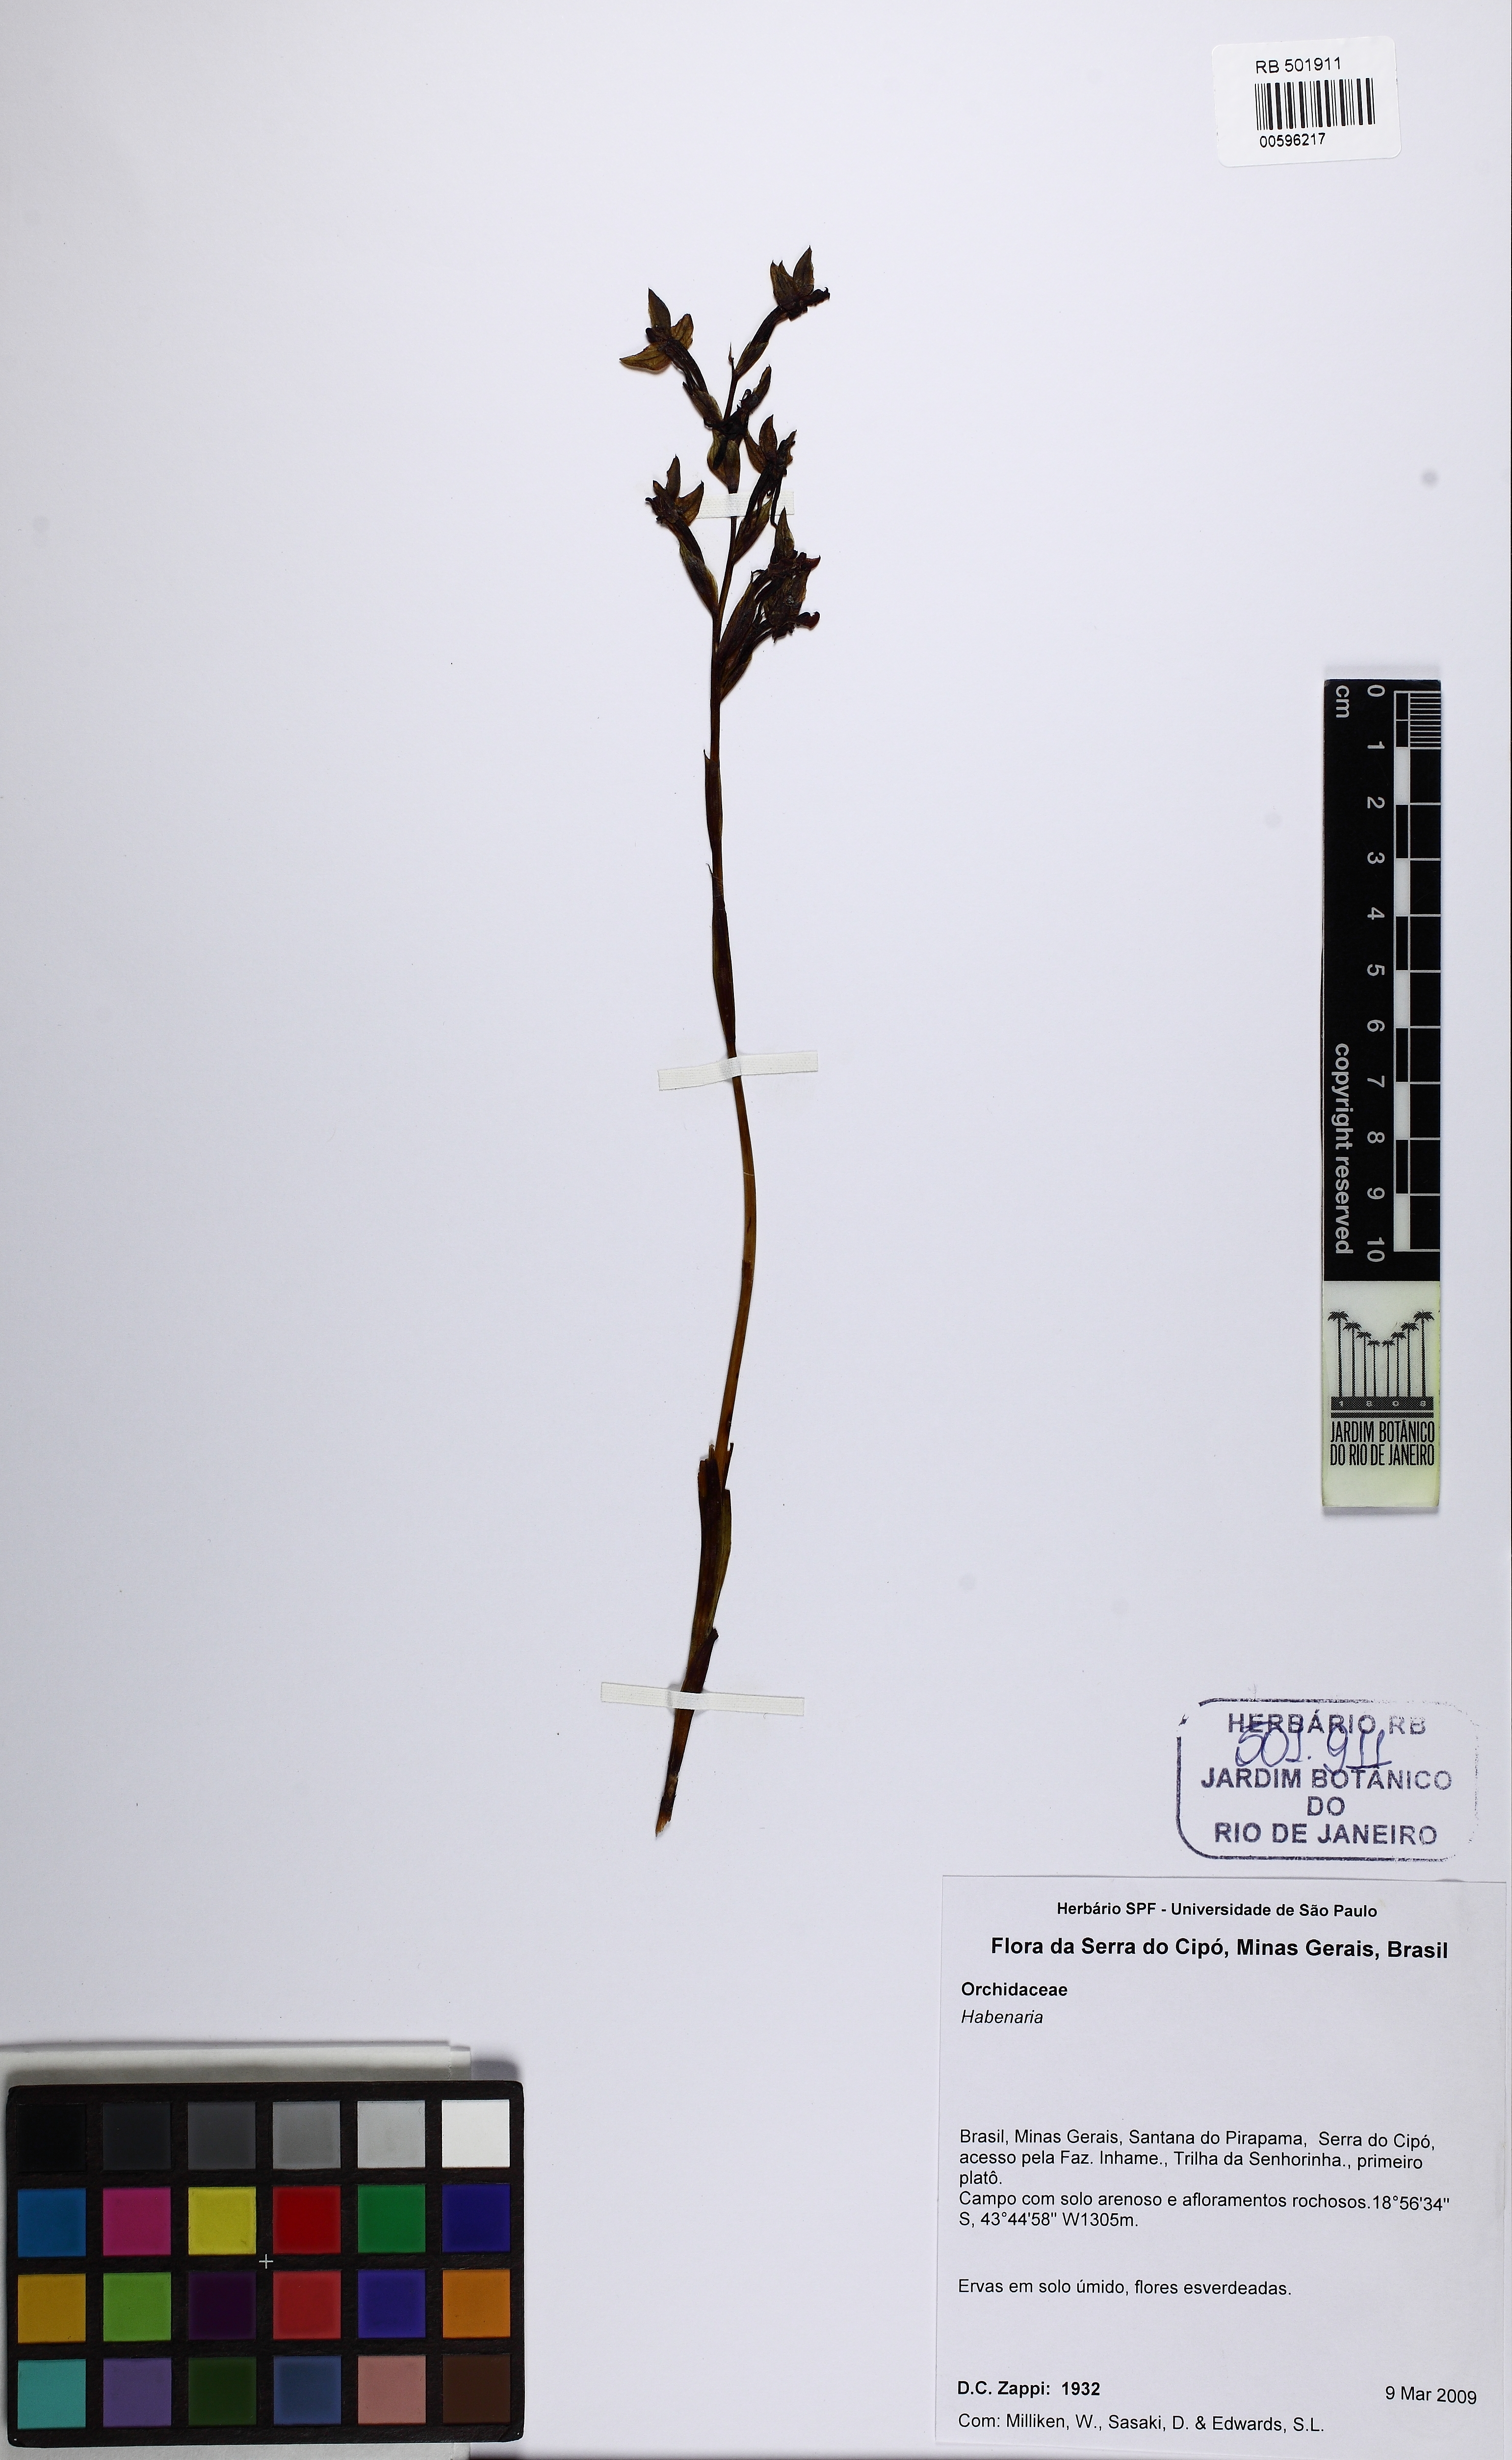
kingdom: Plantae
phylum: Tracheophyta
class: Liliopsida
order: Asparagales
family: Orchidaceae
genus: Habenaria
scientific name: Habenaria
